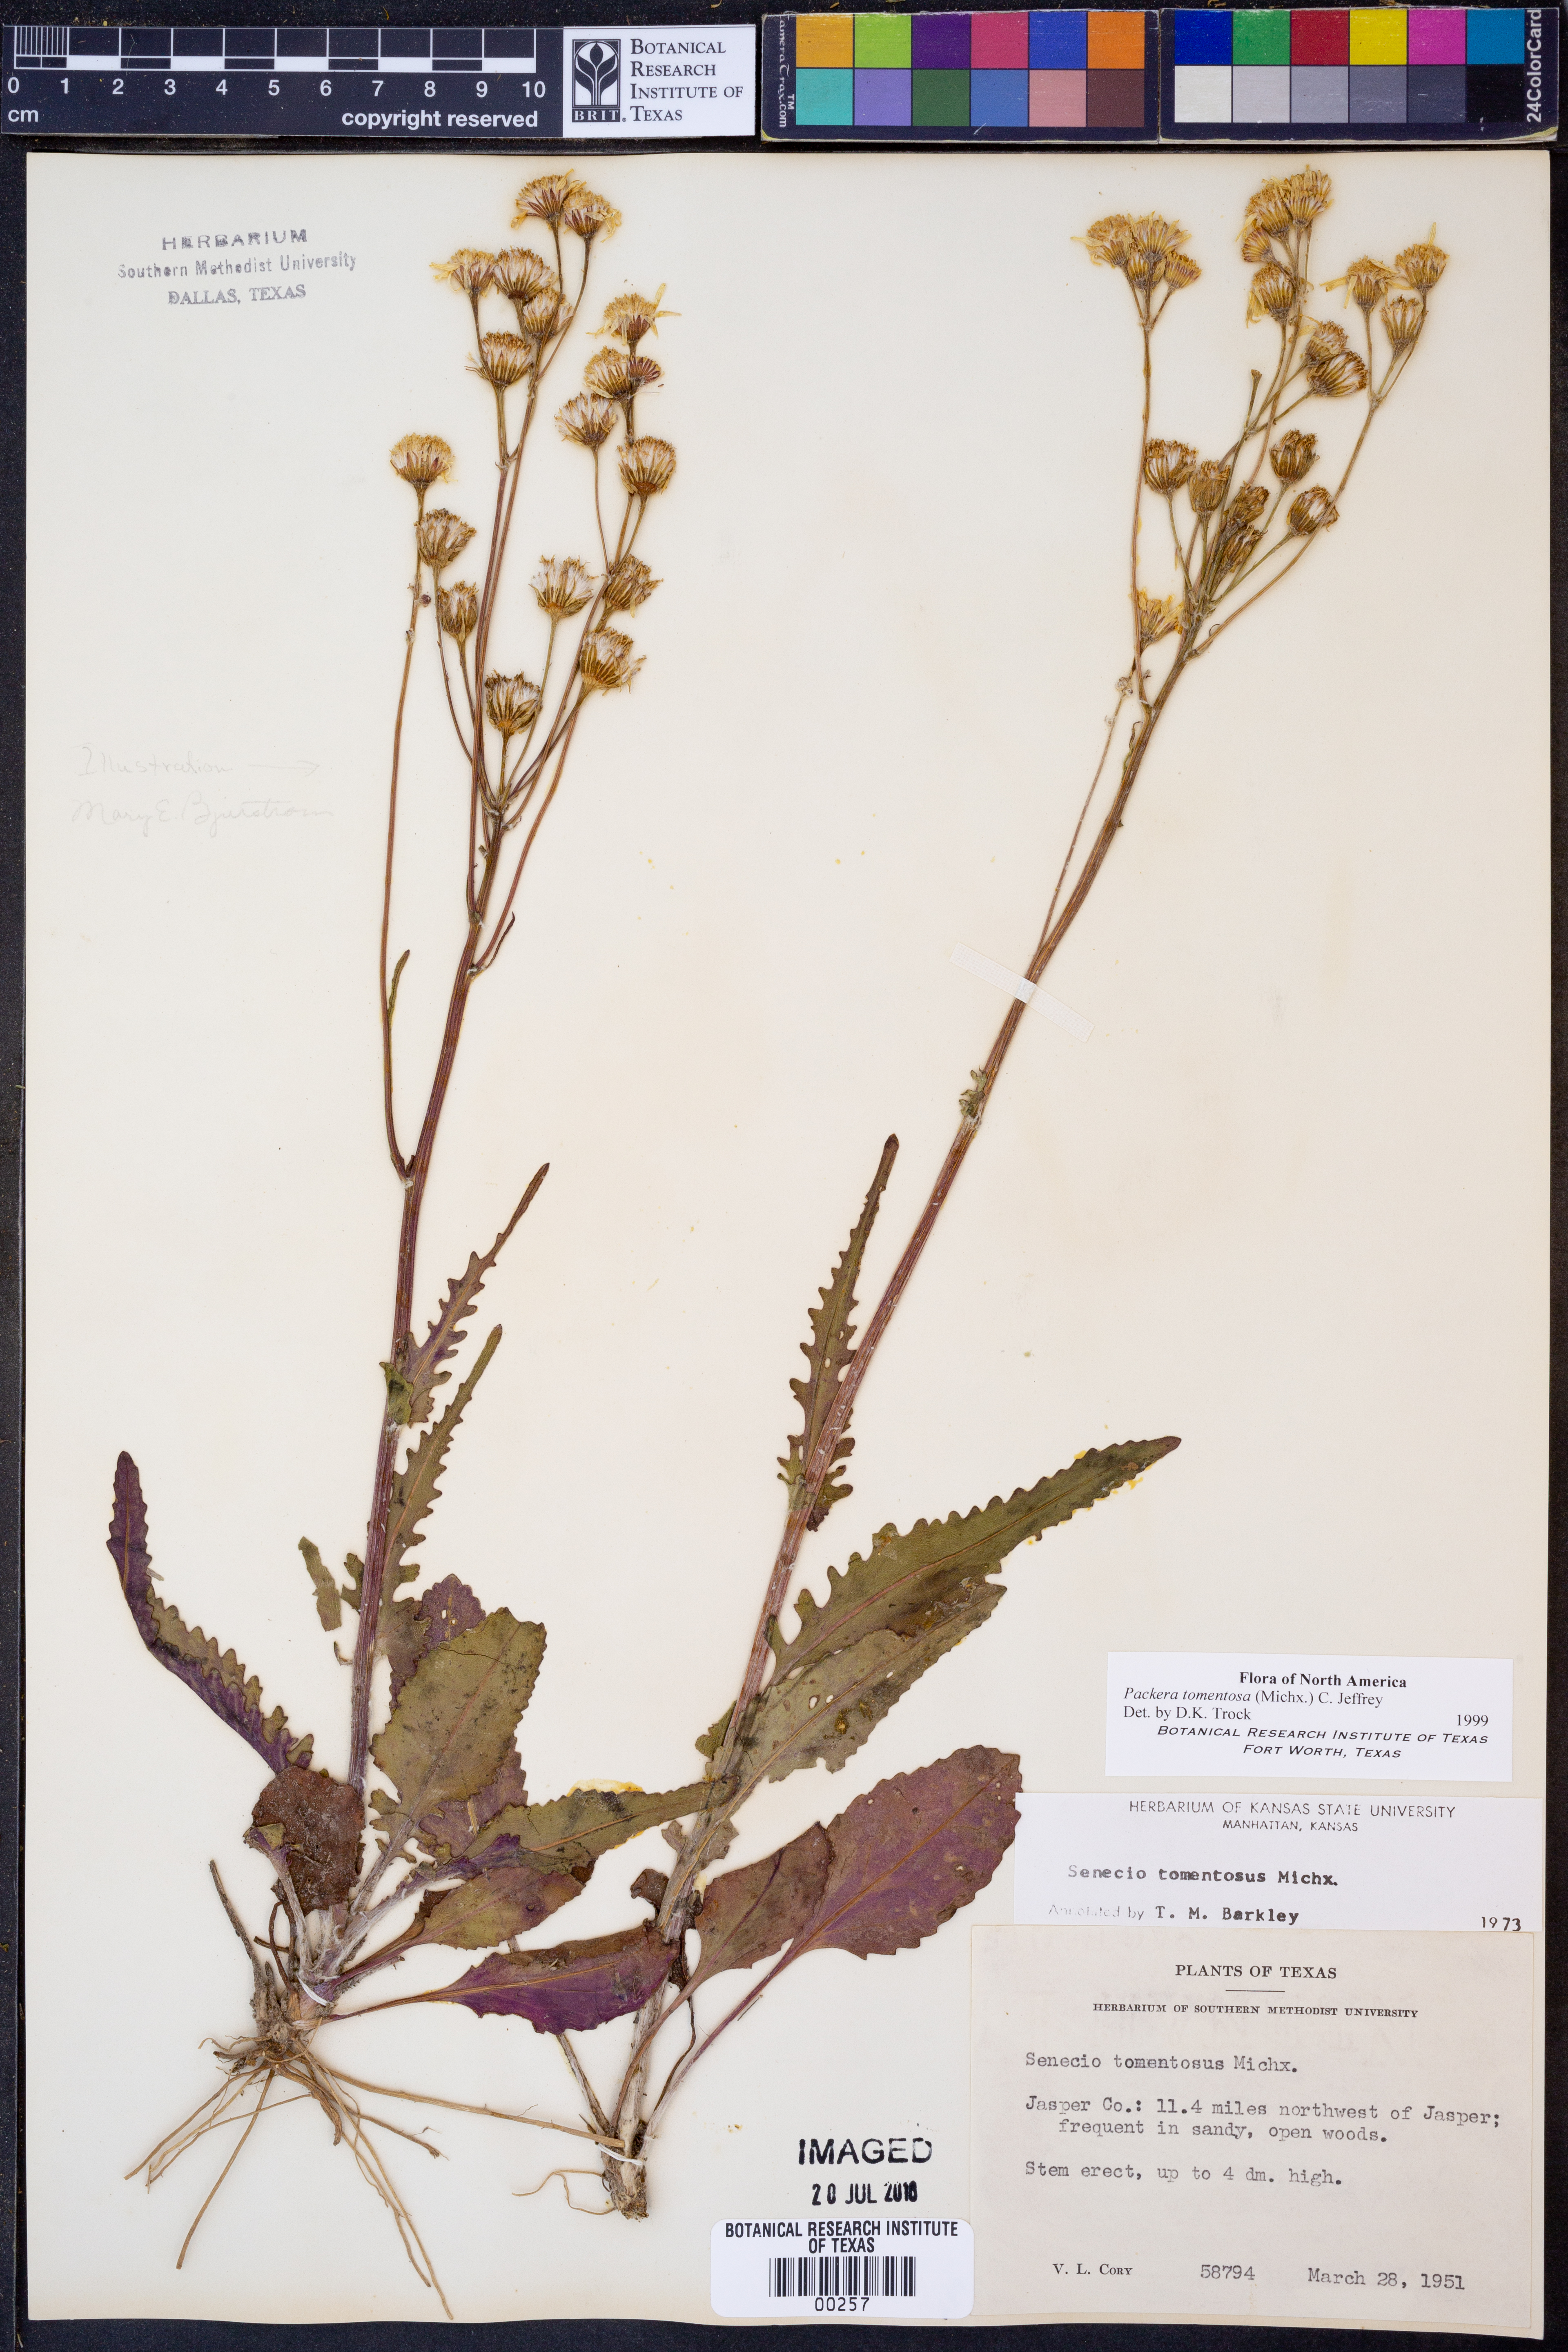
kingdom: Plantae
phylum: Tracheophyta
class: Magnoliopsida
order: Asterales
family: Asteraceae
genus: Packera
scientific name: Packera dubia
